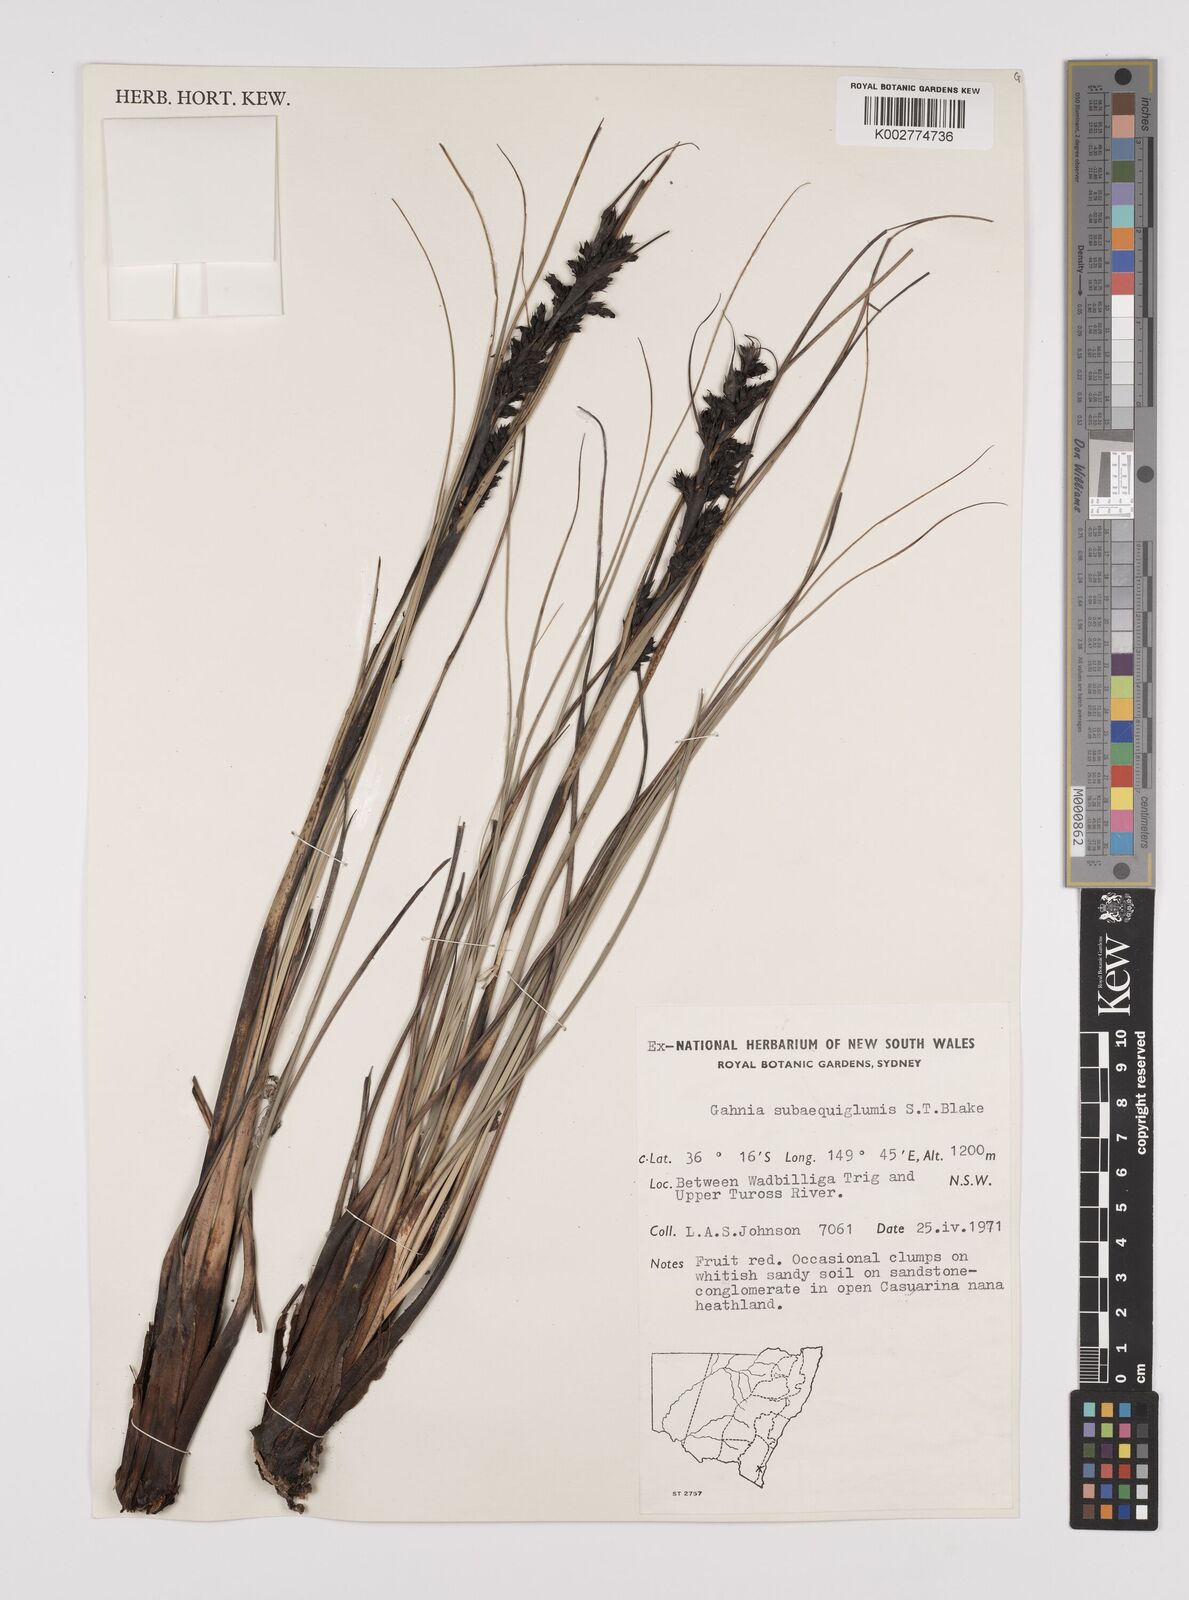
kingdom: Plantae
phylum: Tracheophyta
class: Liliopsida
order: Poales
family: Cyperaceae
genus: Gahnia
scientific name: Gahnia subaequiglumis
